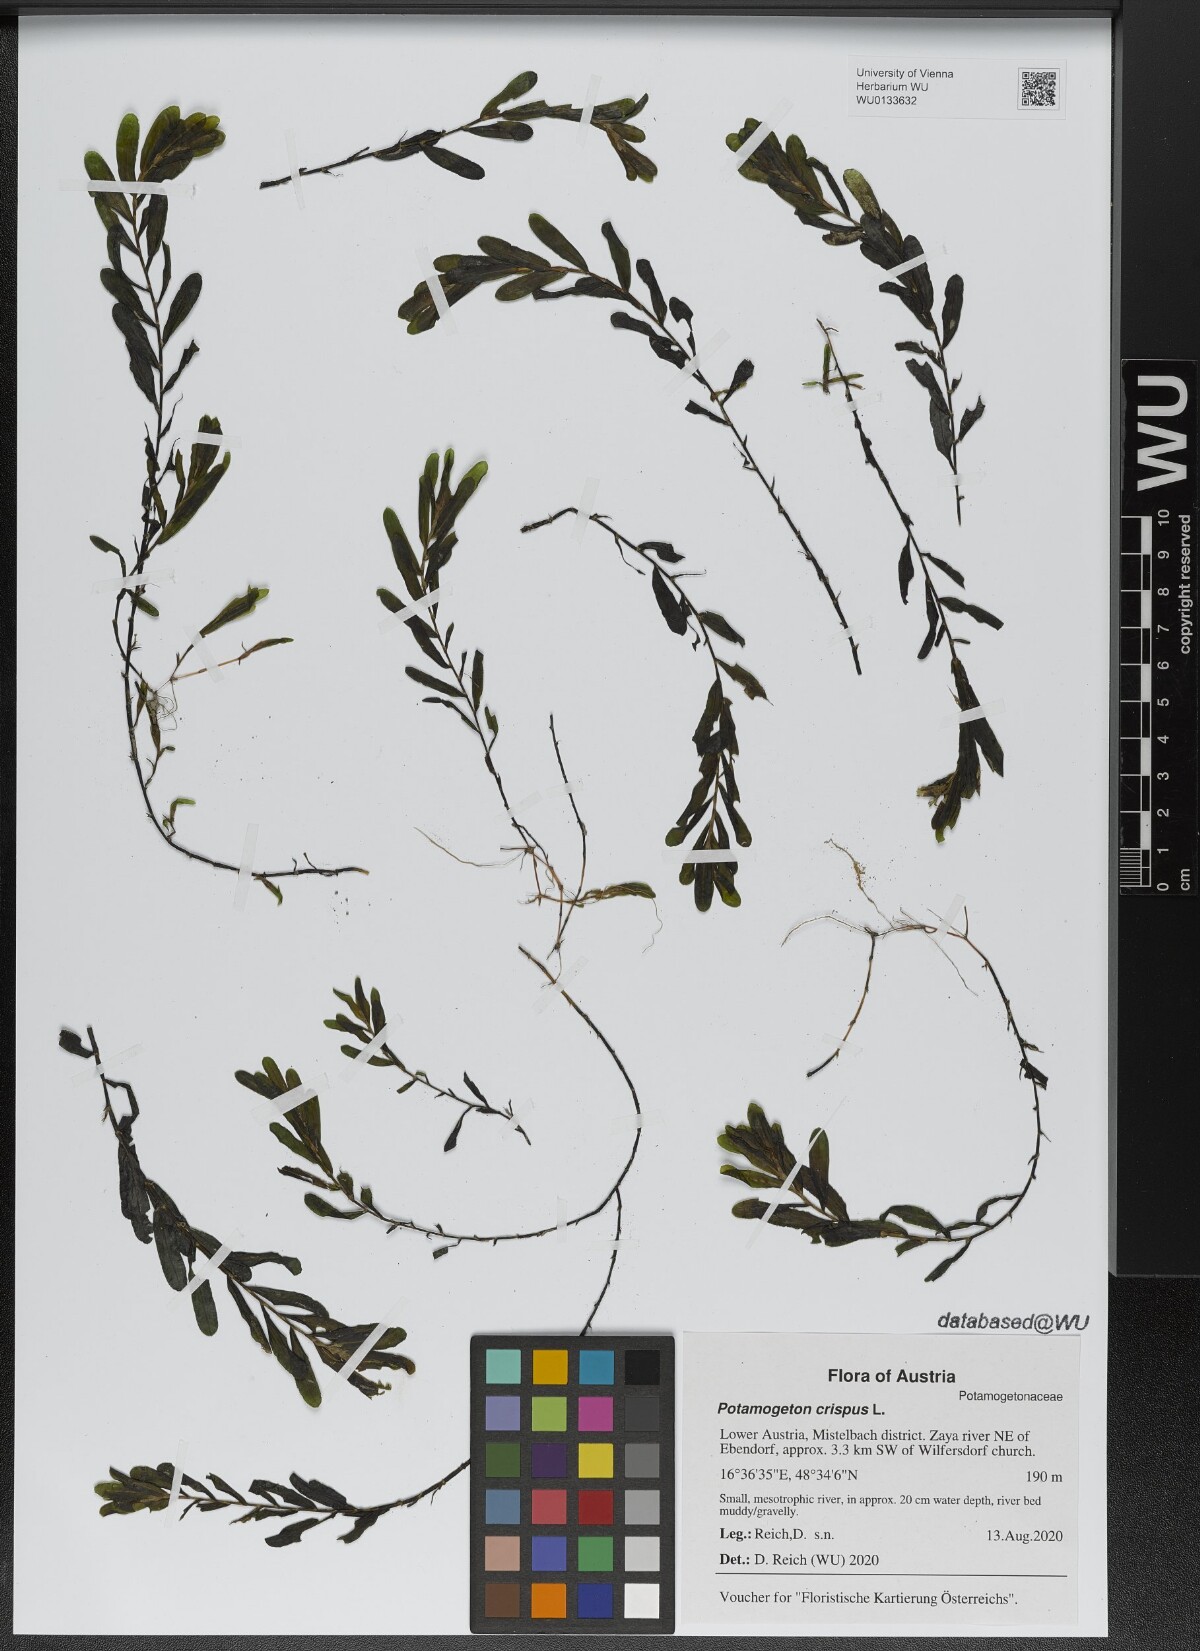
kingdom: Plantae
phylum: Tracheophyta
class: Liliopsida
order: Alismatales
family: Potamogetonaceae
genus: Potamogeton
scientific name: Potamogeton crispus
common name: Curled pondweed
